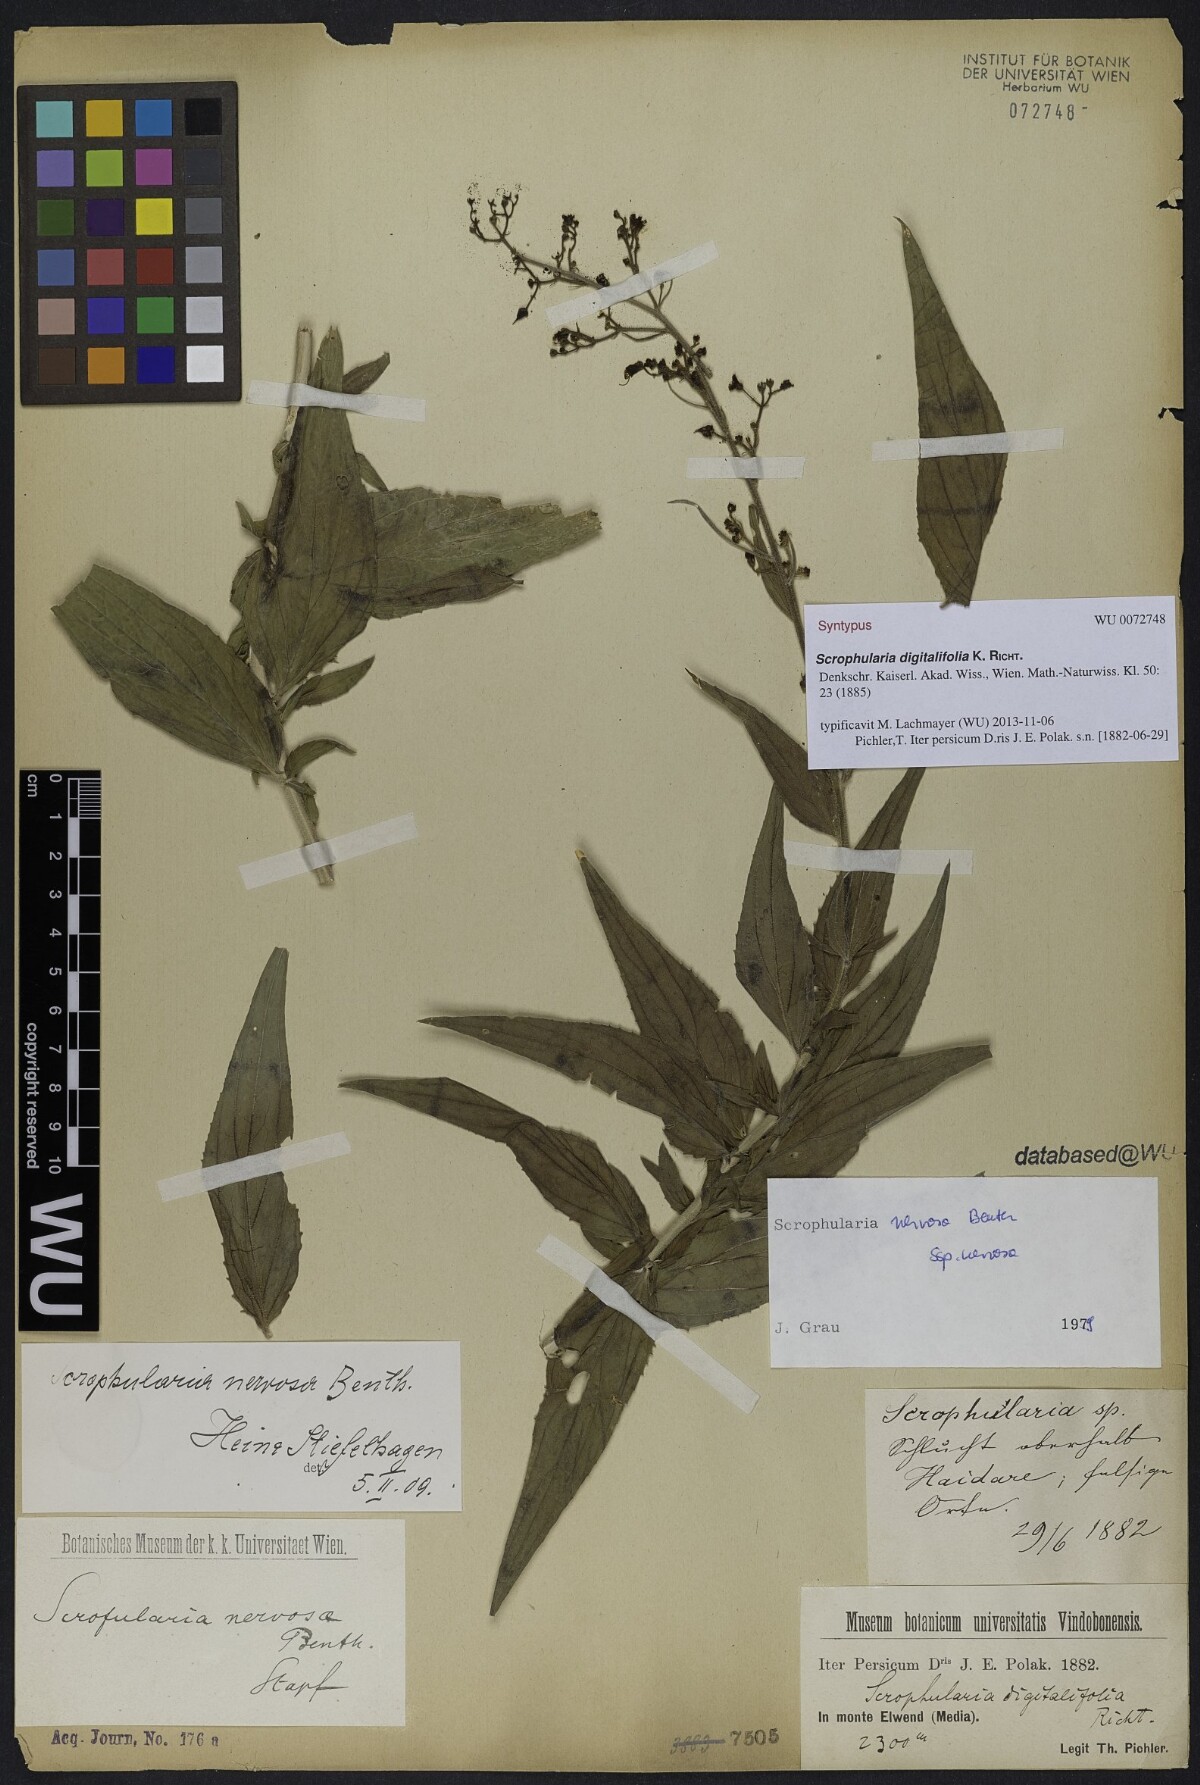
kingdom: Plantae
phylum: Tracheophyta
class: Magnoliopsida
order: Lamiales
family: Scrophulariaceae
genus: Scrophularia
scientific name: Scrophularia nervosa
